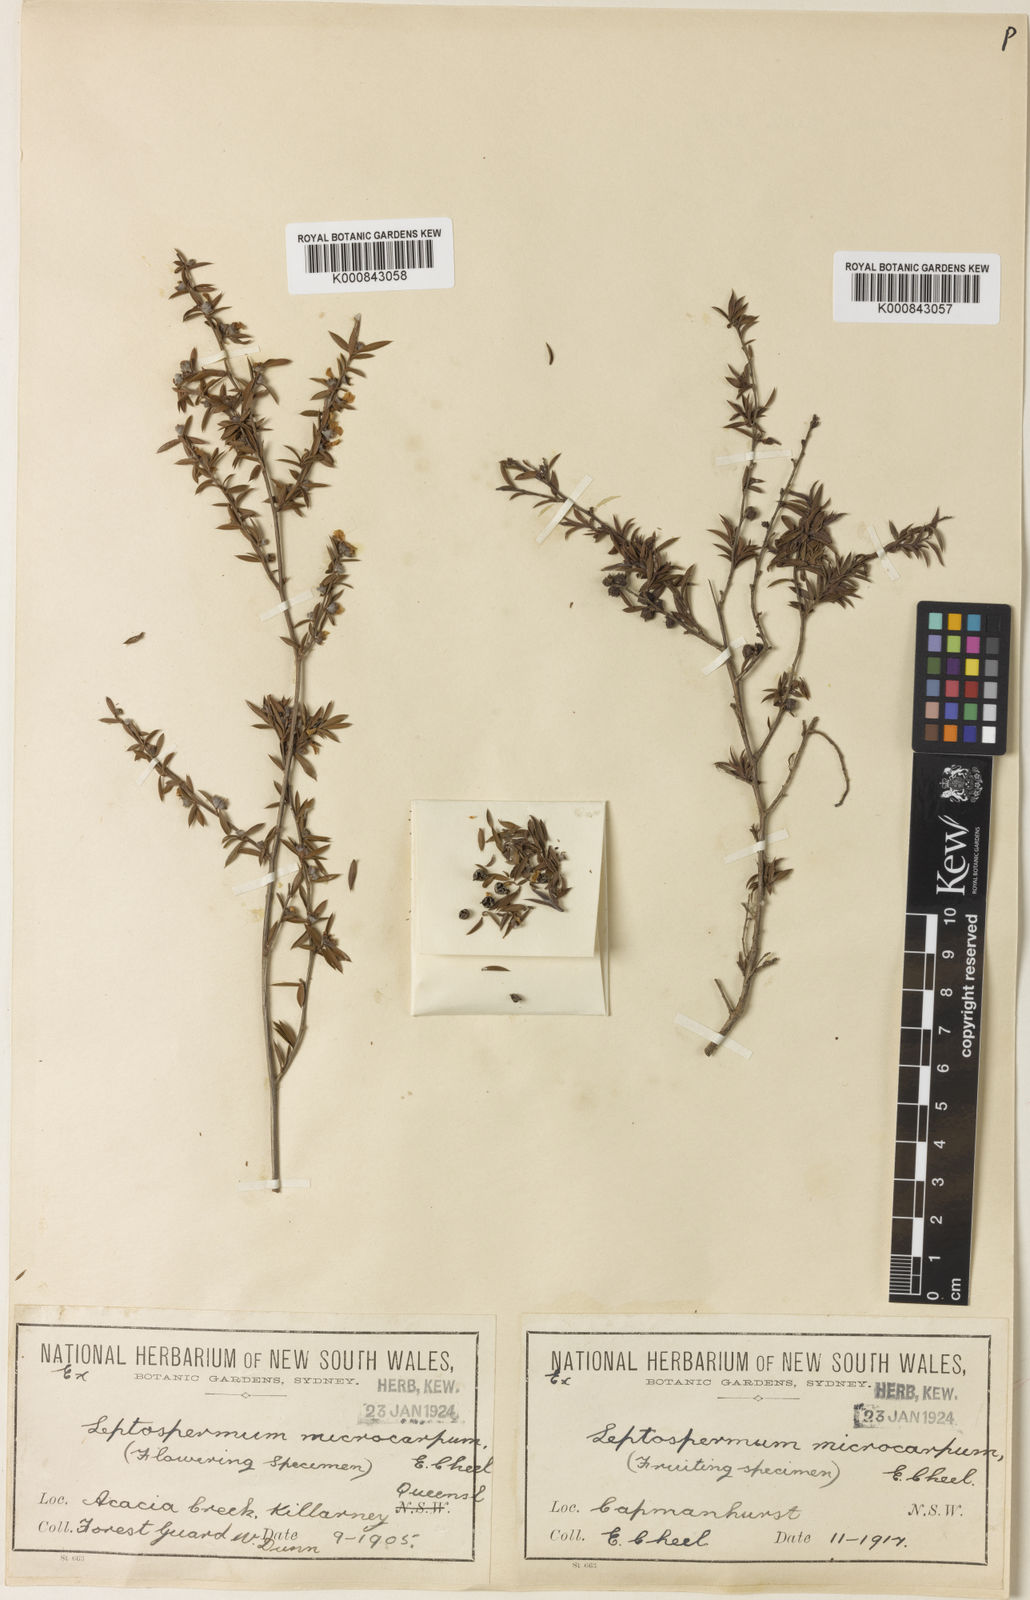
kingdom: Plantae
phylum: Tracheophyta
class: Magnoliopsida
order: Myrtales
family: Myrtaceae
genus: Leptospermum
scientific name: Leptospermum microcarpum
